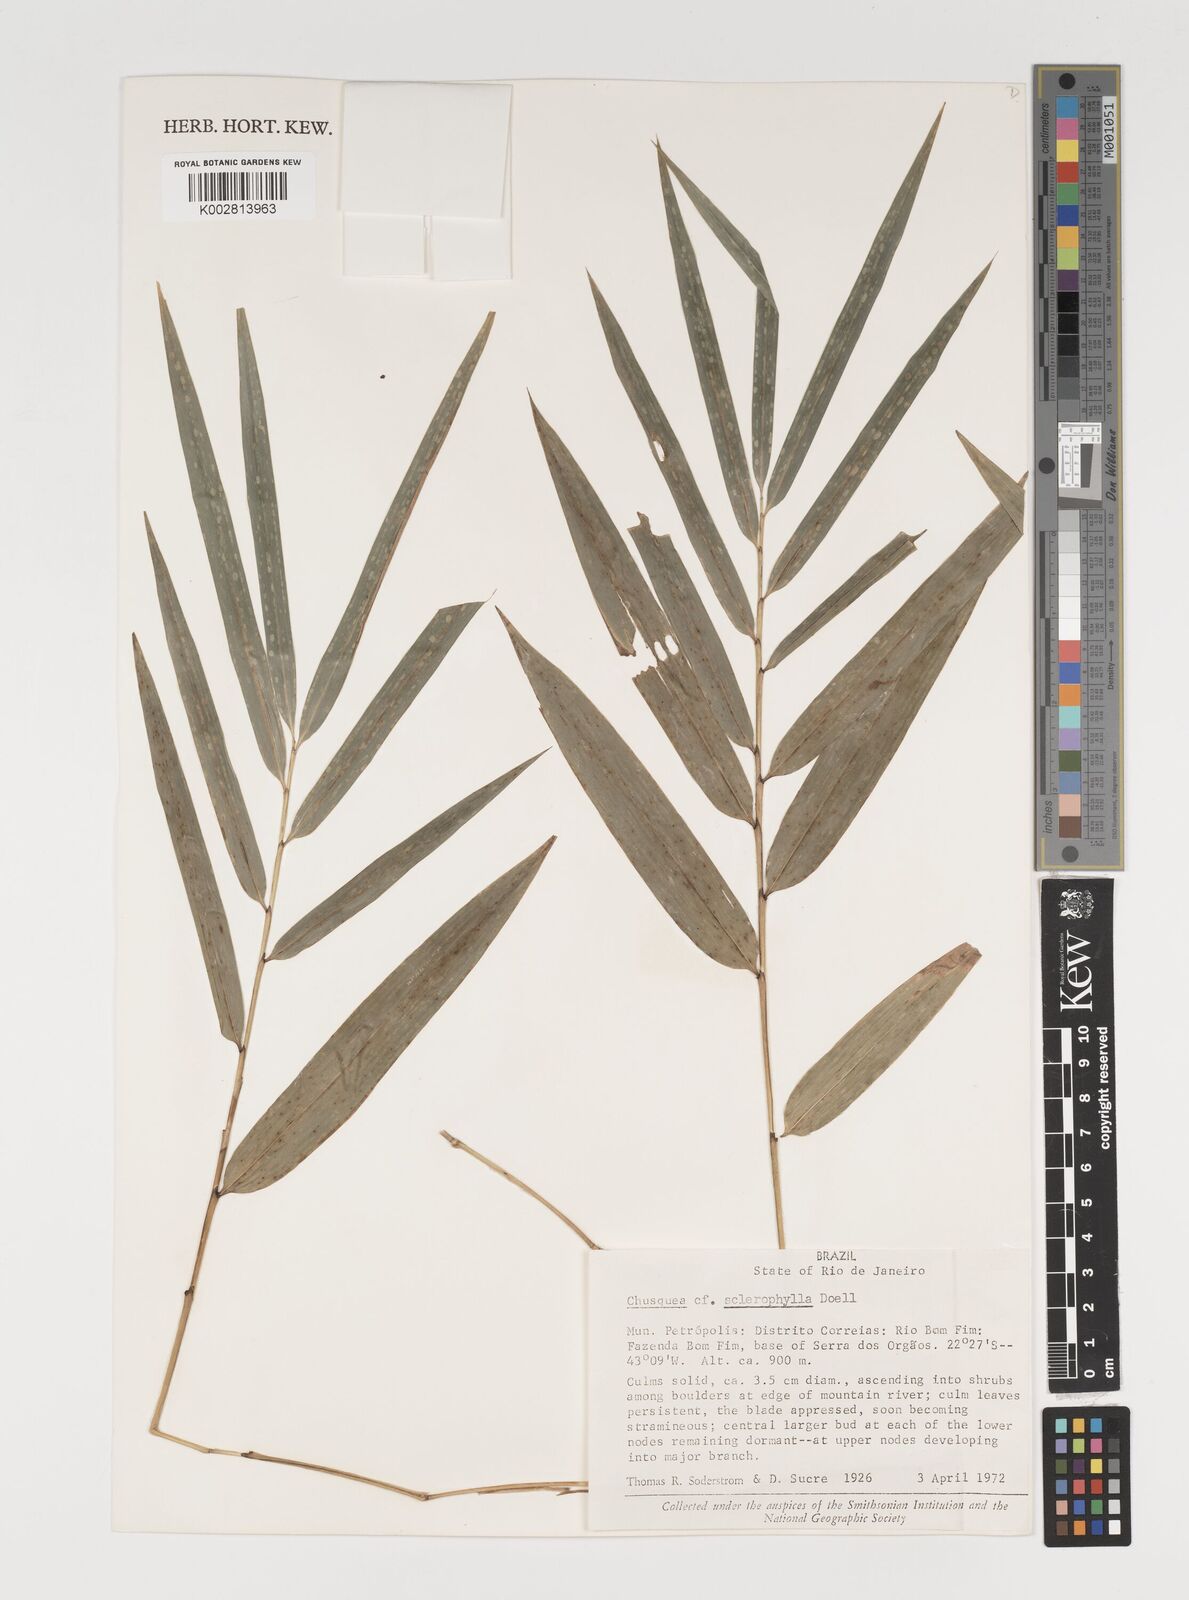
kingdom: Plantae
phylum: Tracheophyta
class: Liliopsida
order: Poales
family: Poaceae
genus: Chusquea
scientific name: Chusquea sclerophylla
